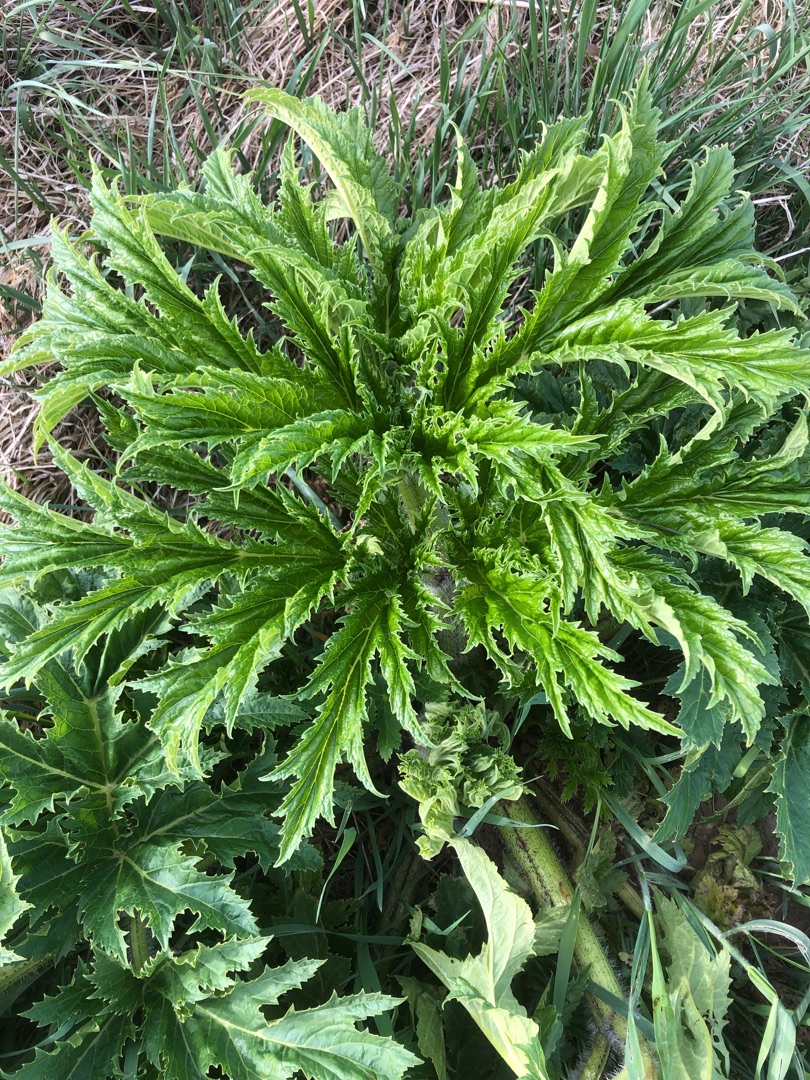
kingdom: Plantae
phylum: Tracheophyta
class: Magnoliopsida
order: Apiales
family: Apiaceae
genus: Heracleum
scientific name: Heracleum mantegazzianum
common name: Kæmpe-bjørneklo
